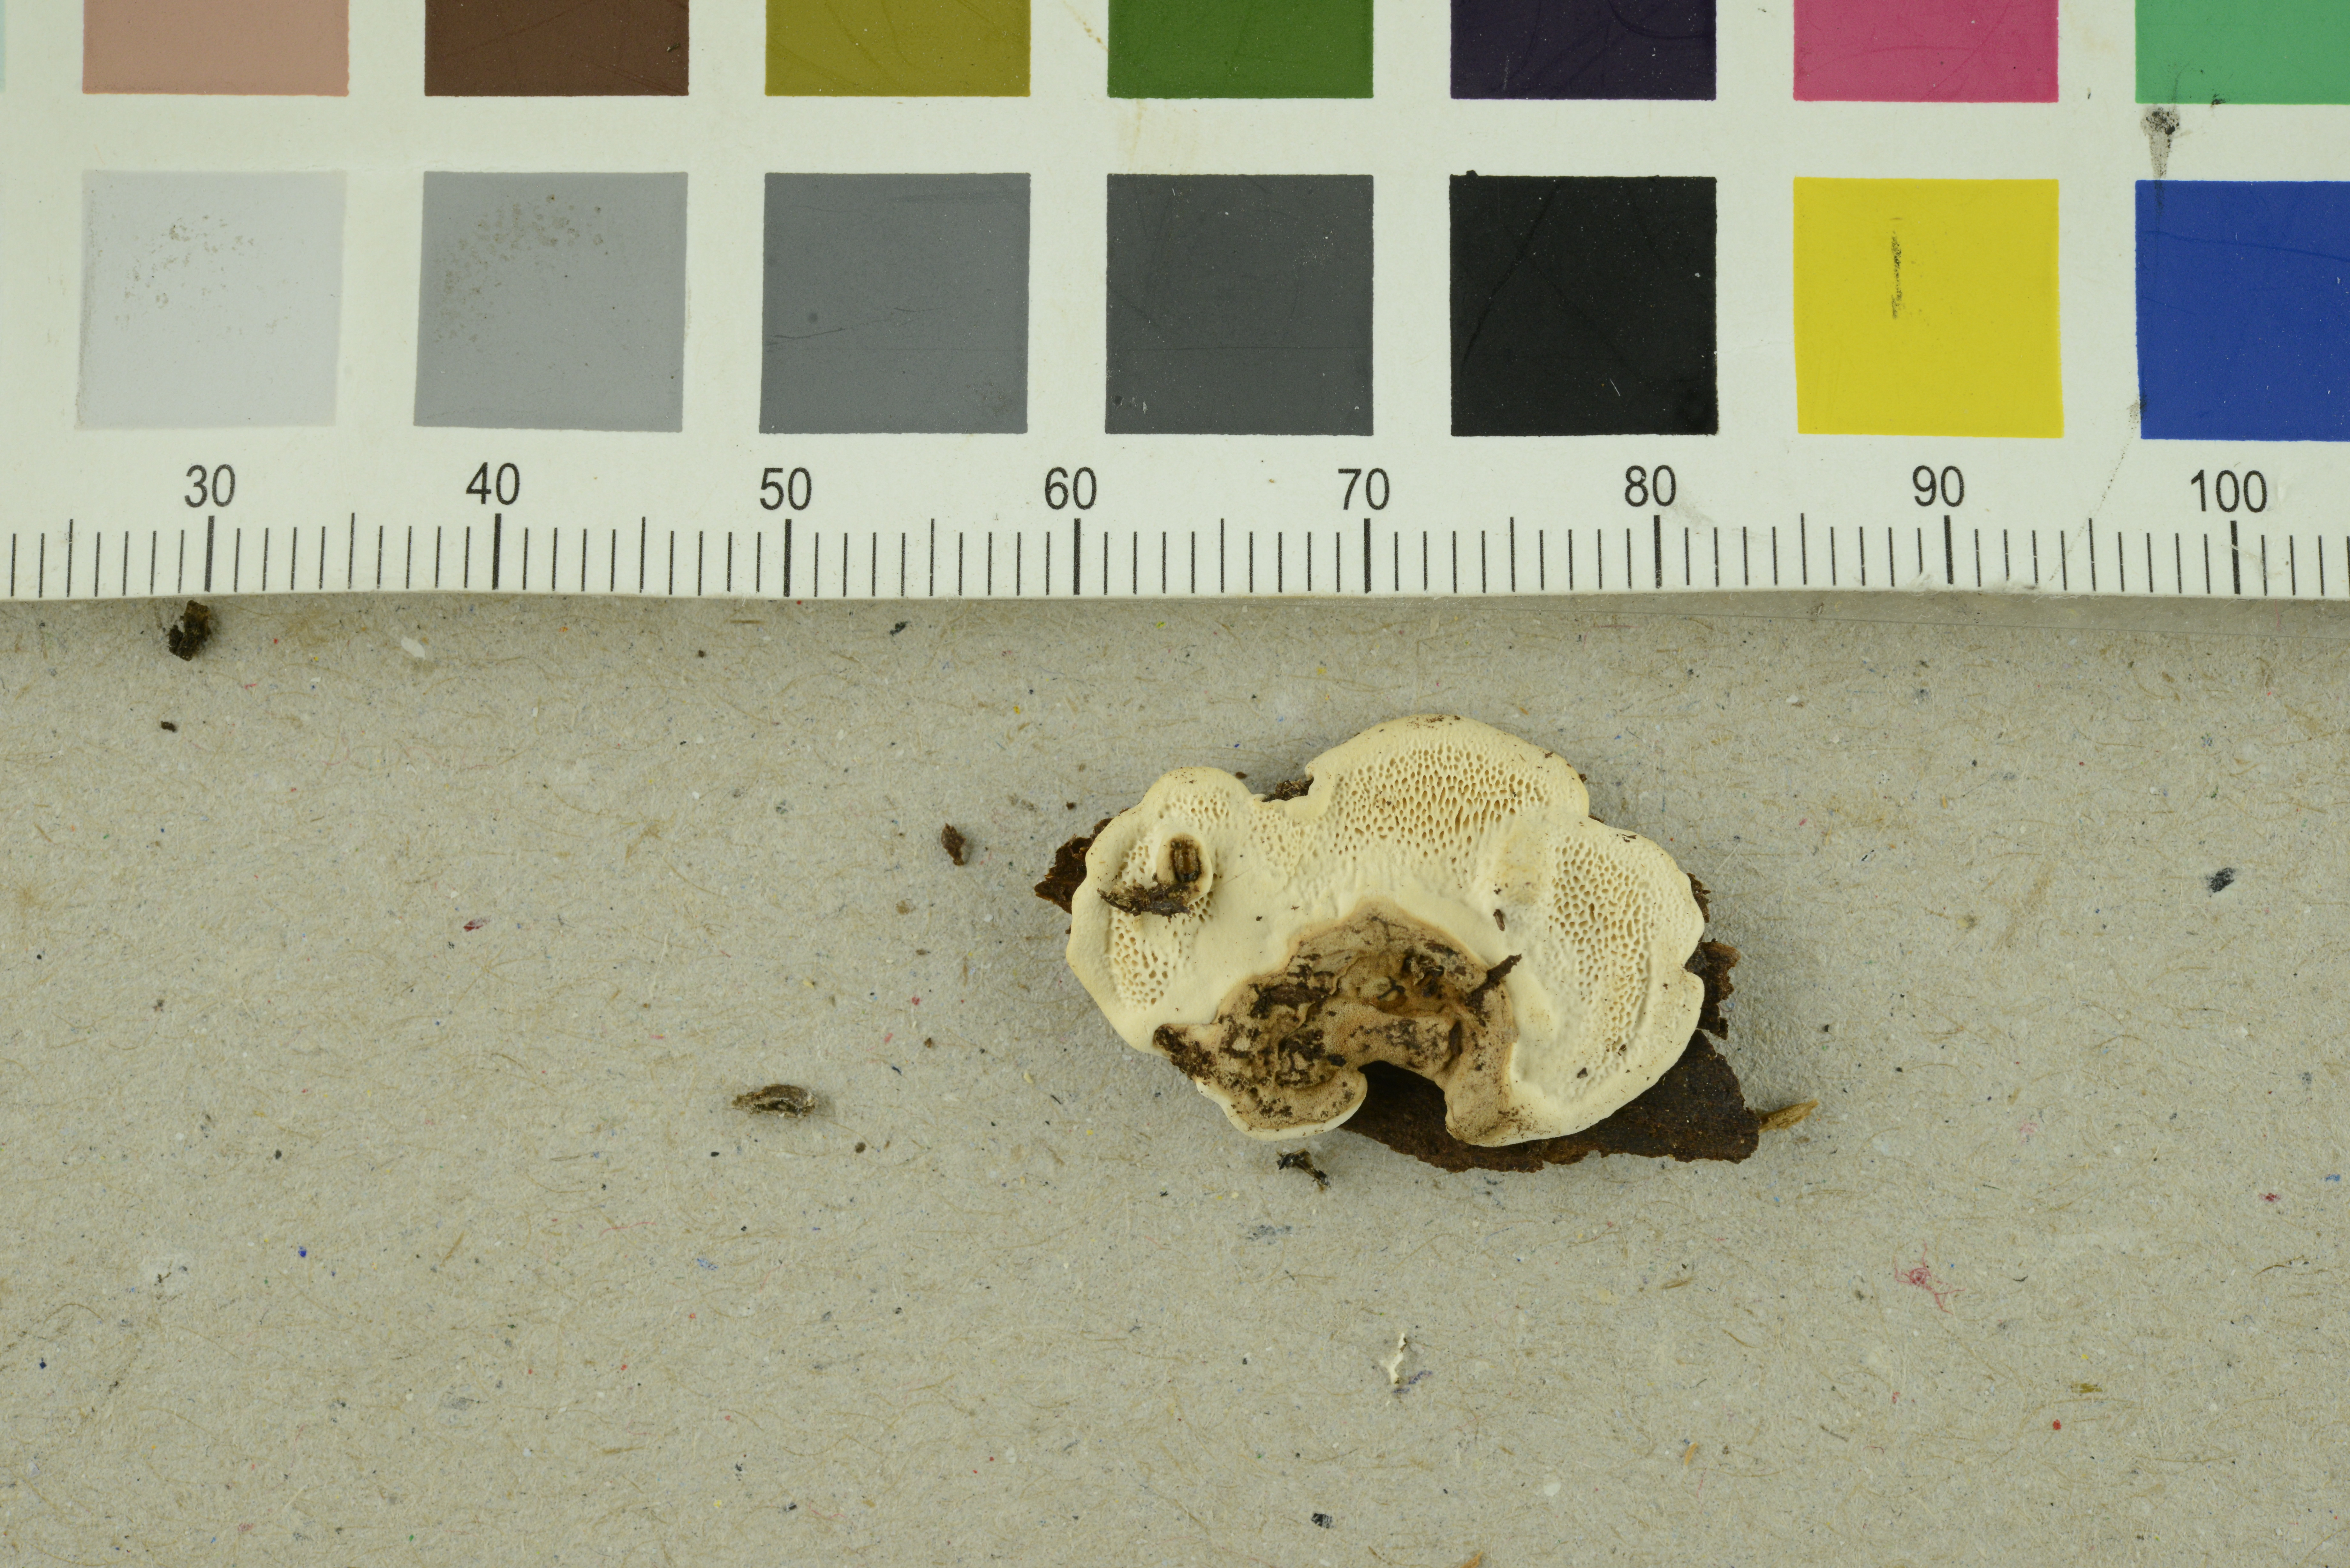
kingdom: Fungi
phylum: Basidiomycota
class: Agaricomycetes
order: Russulales
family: Bondarzewiaceae
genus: Heterobasidion
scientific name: Heterobasidion parviporum
